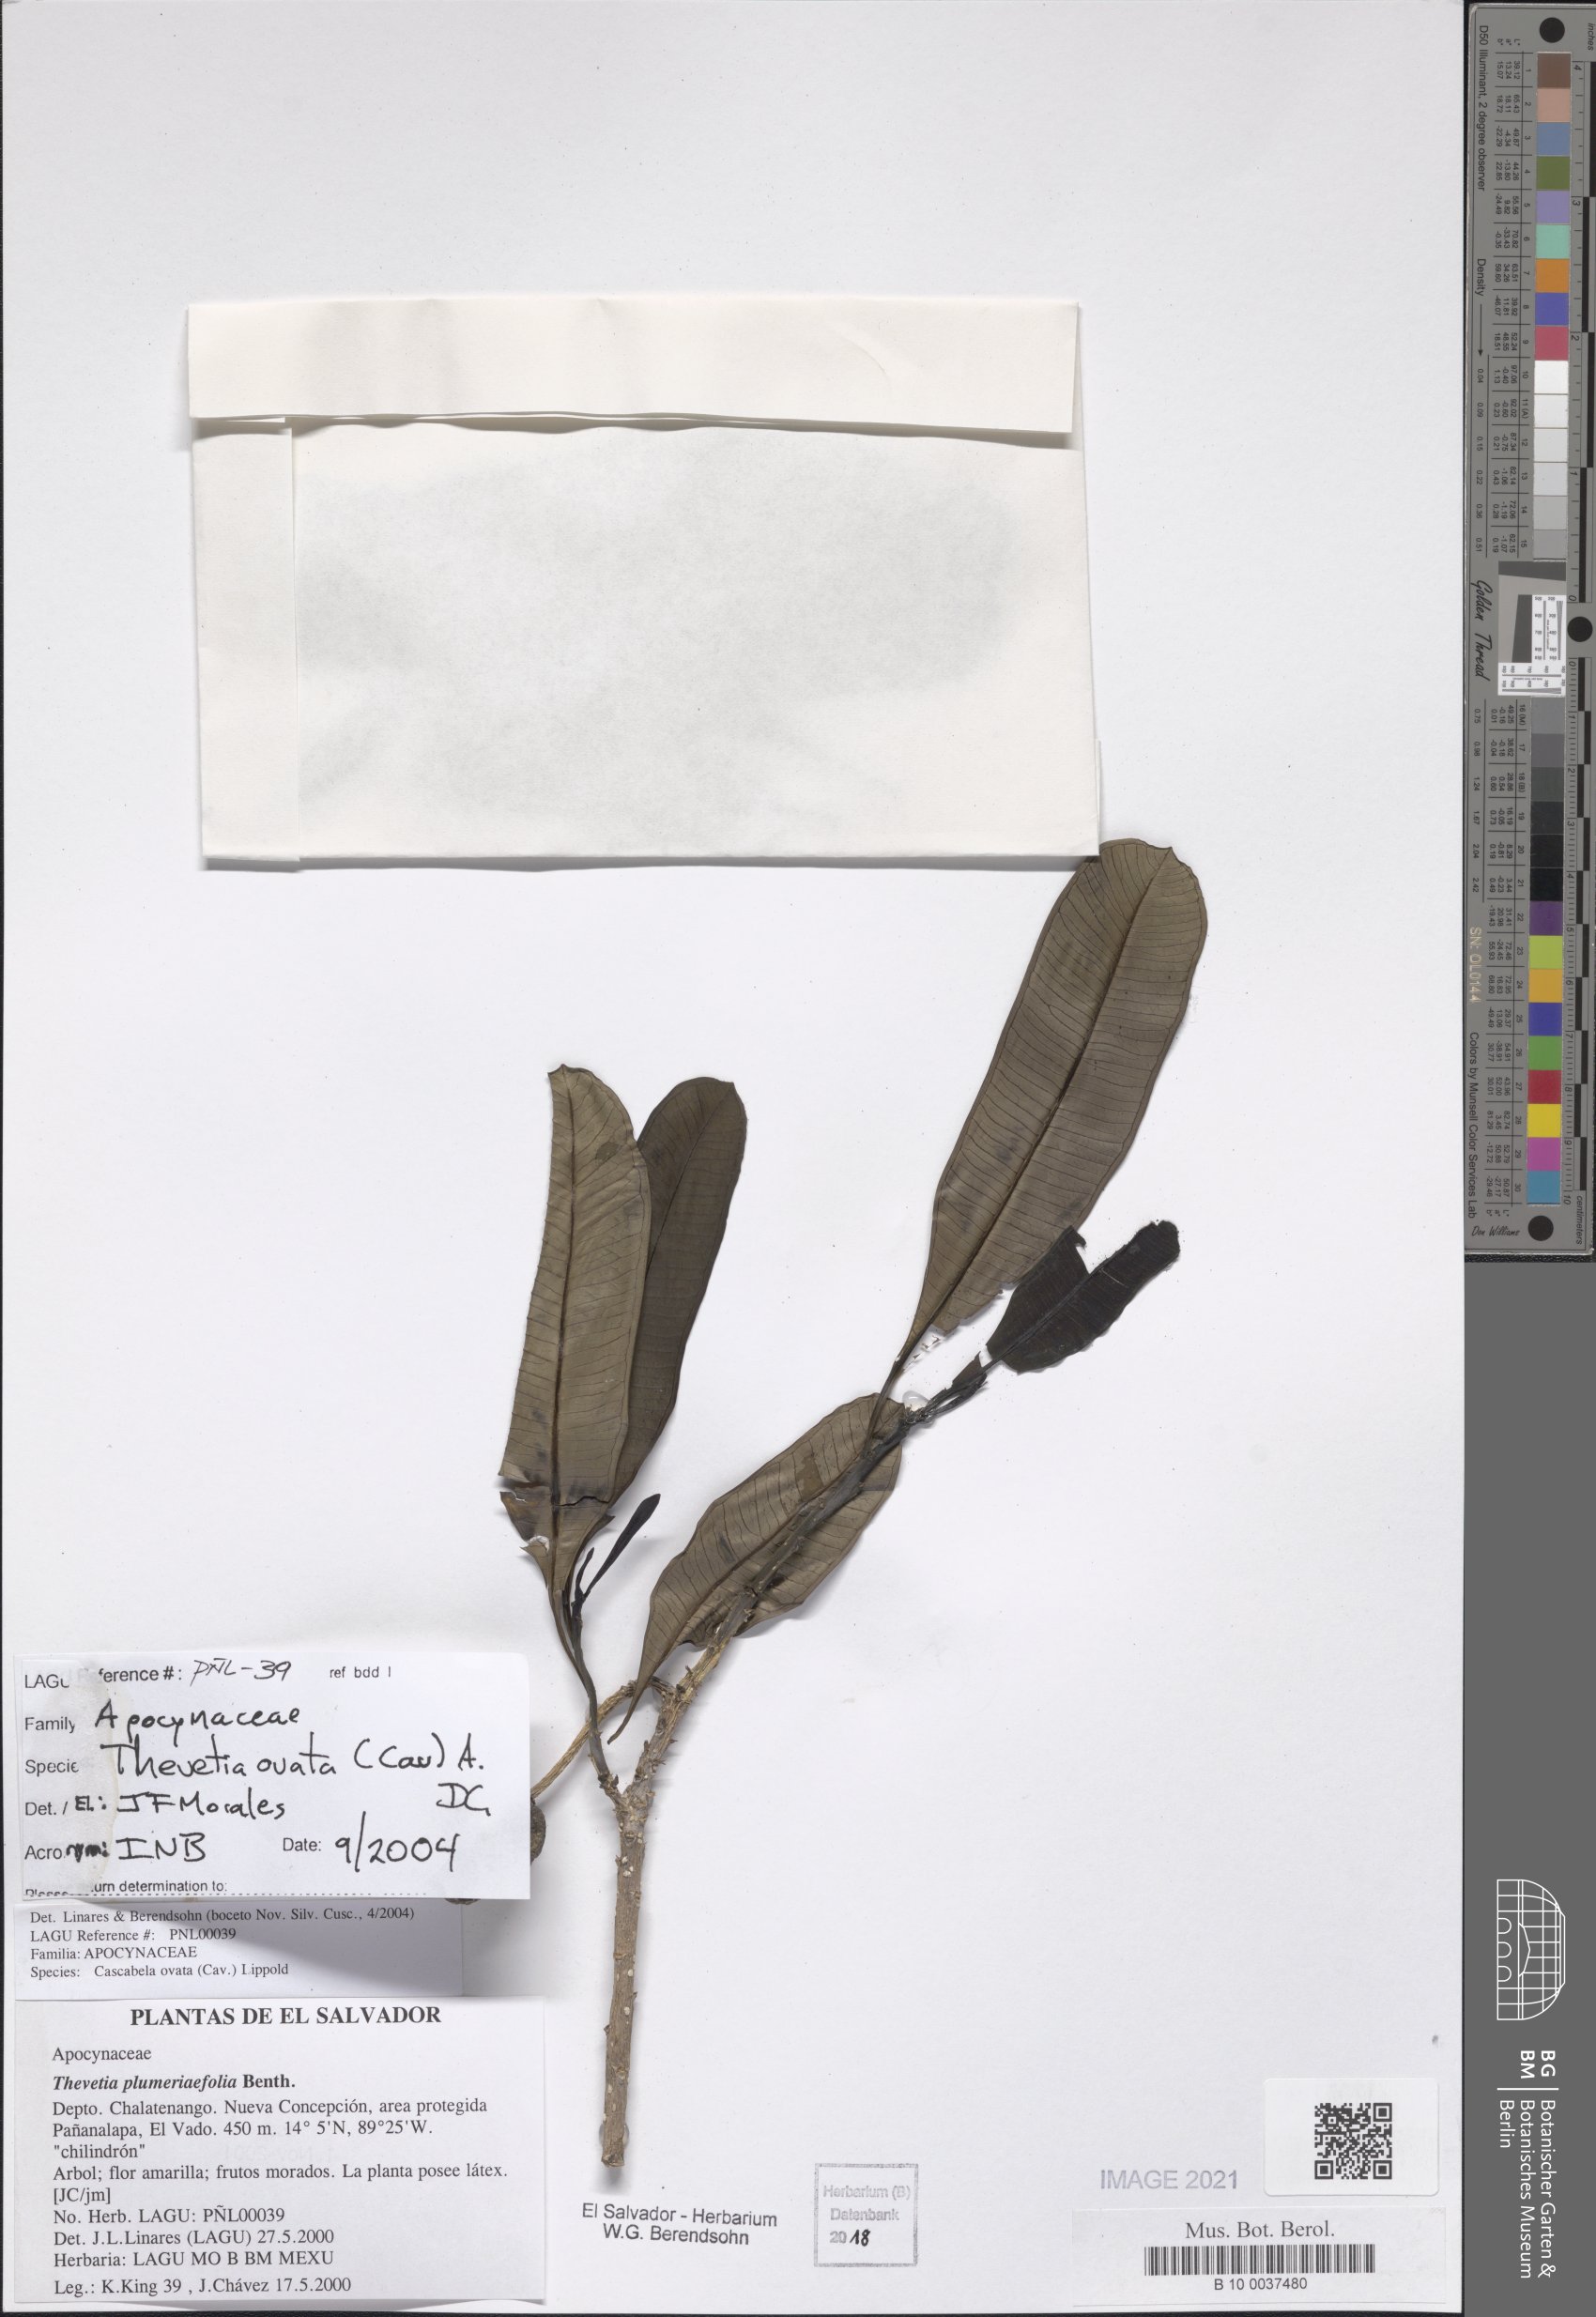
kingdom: Plantae
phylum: Tracheophyta
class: Magnoliopsida
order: Gentianales
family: Apocynaceae
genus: Cascabela
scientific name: Cascabela ovata
